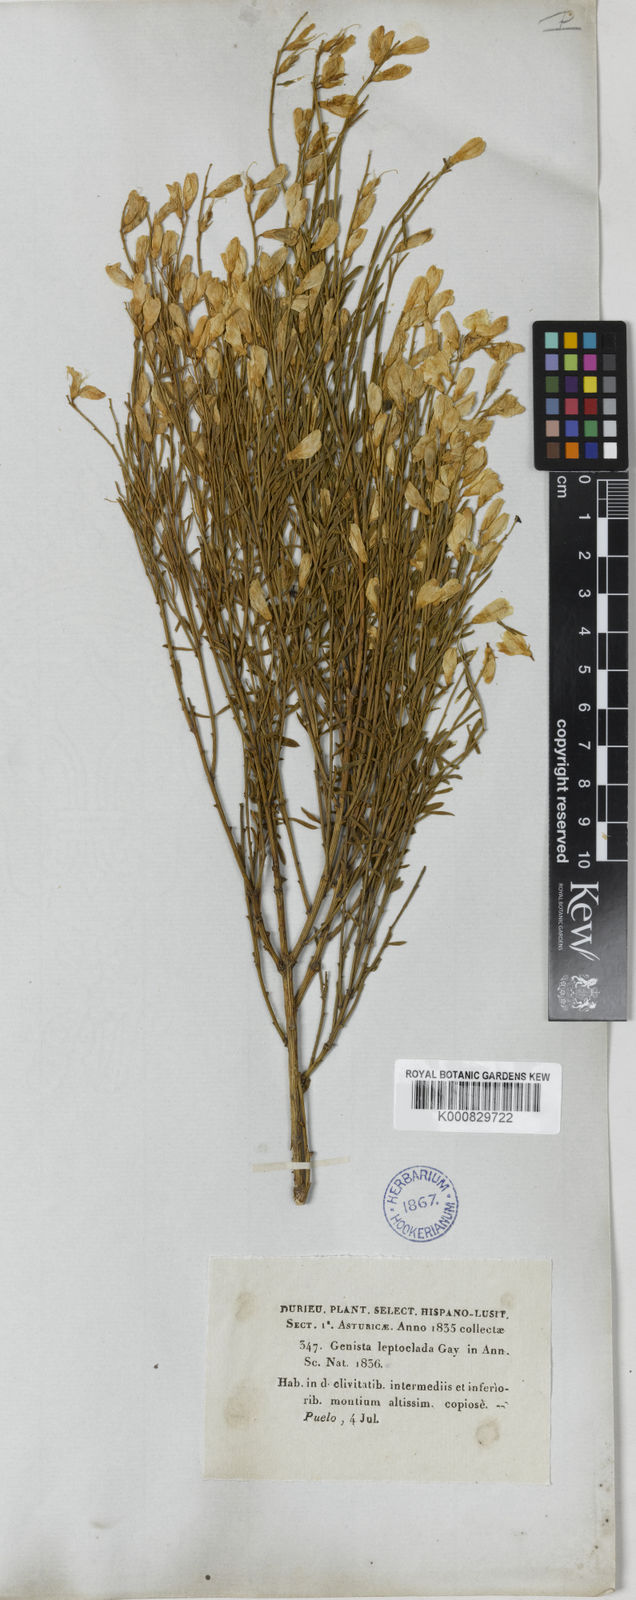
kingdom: Plantae
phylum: Tracheophyta
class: Magnoliopsida
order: Fabales
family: Fabaceae
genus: Genista
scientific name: Genista florida
